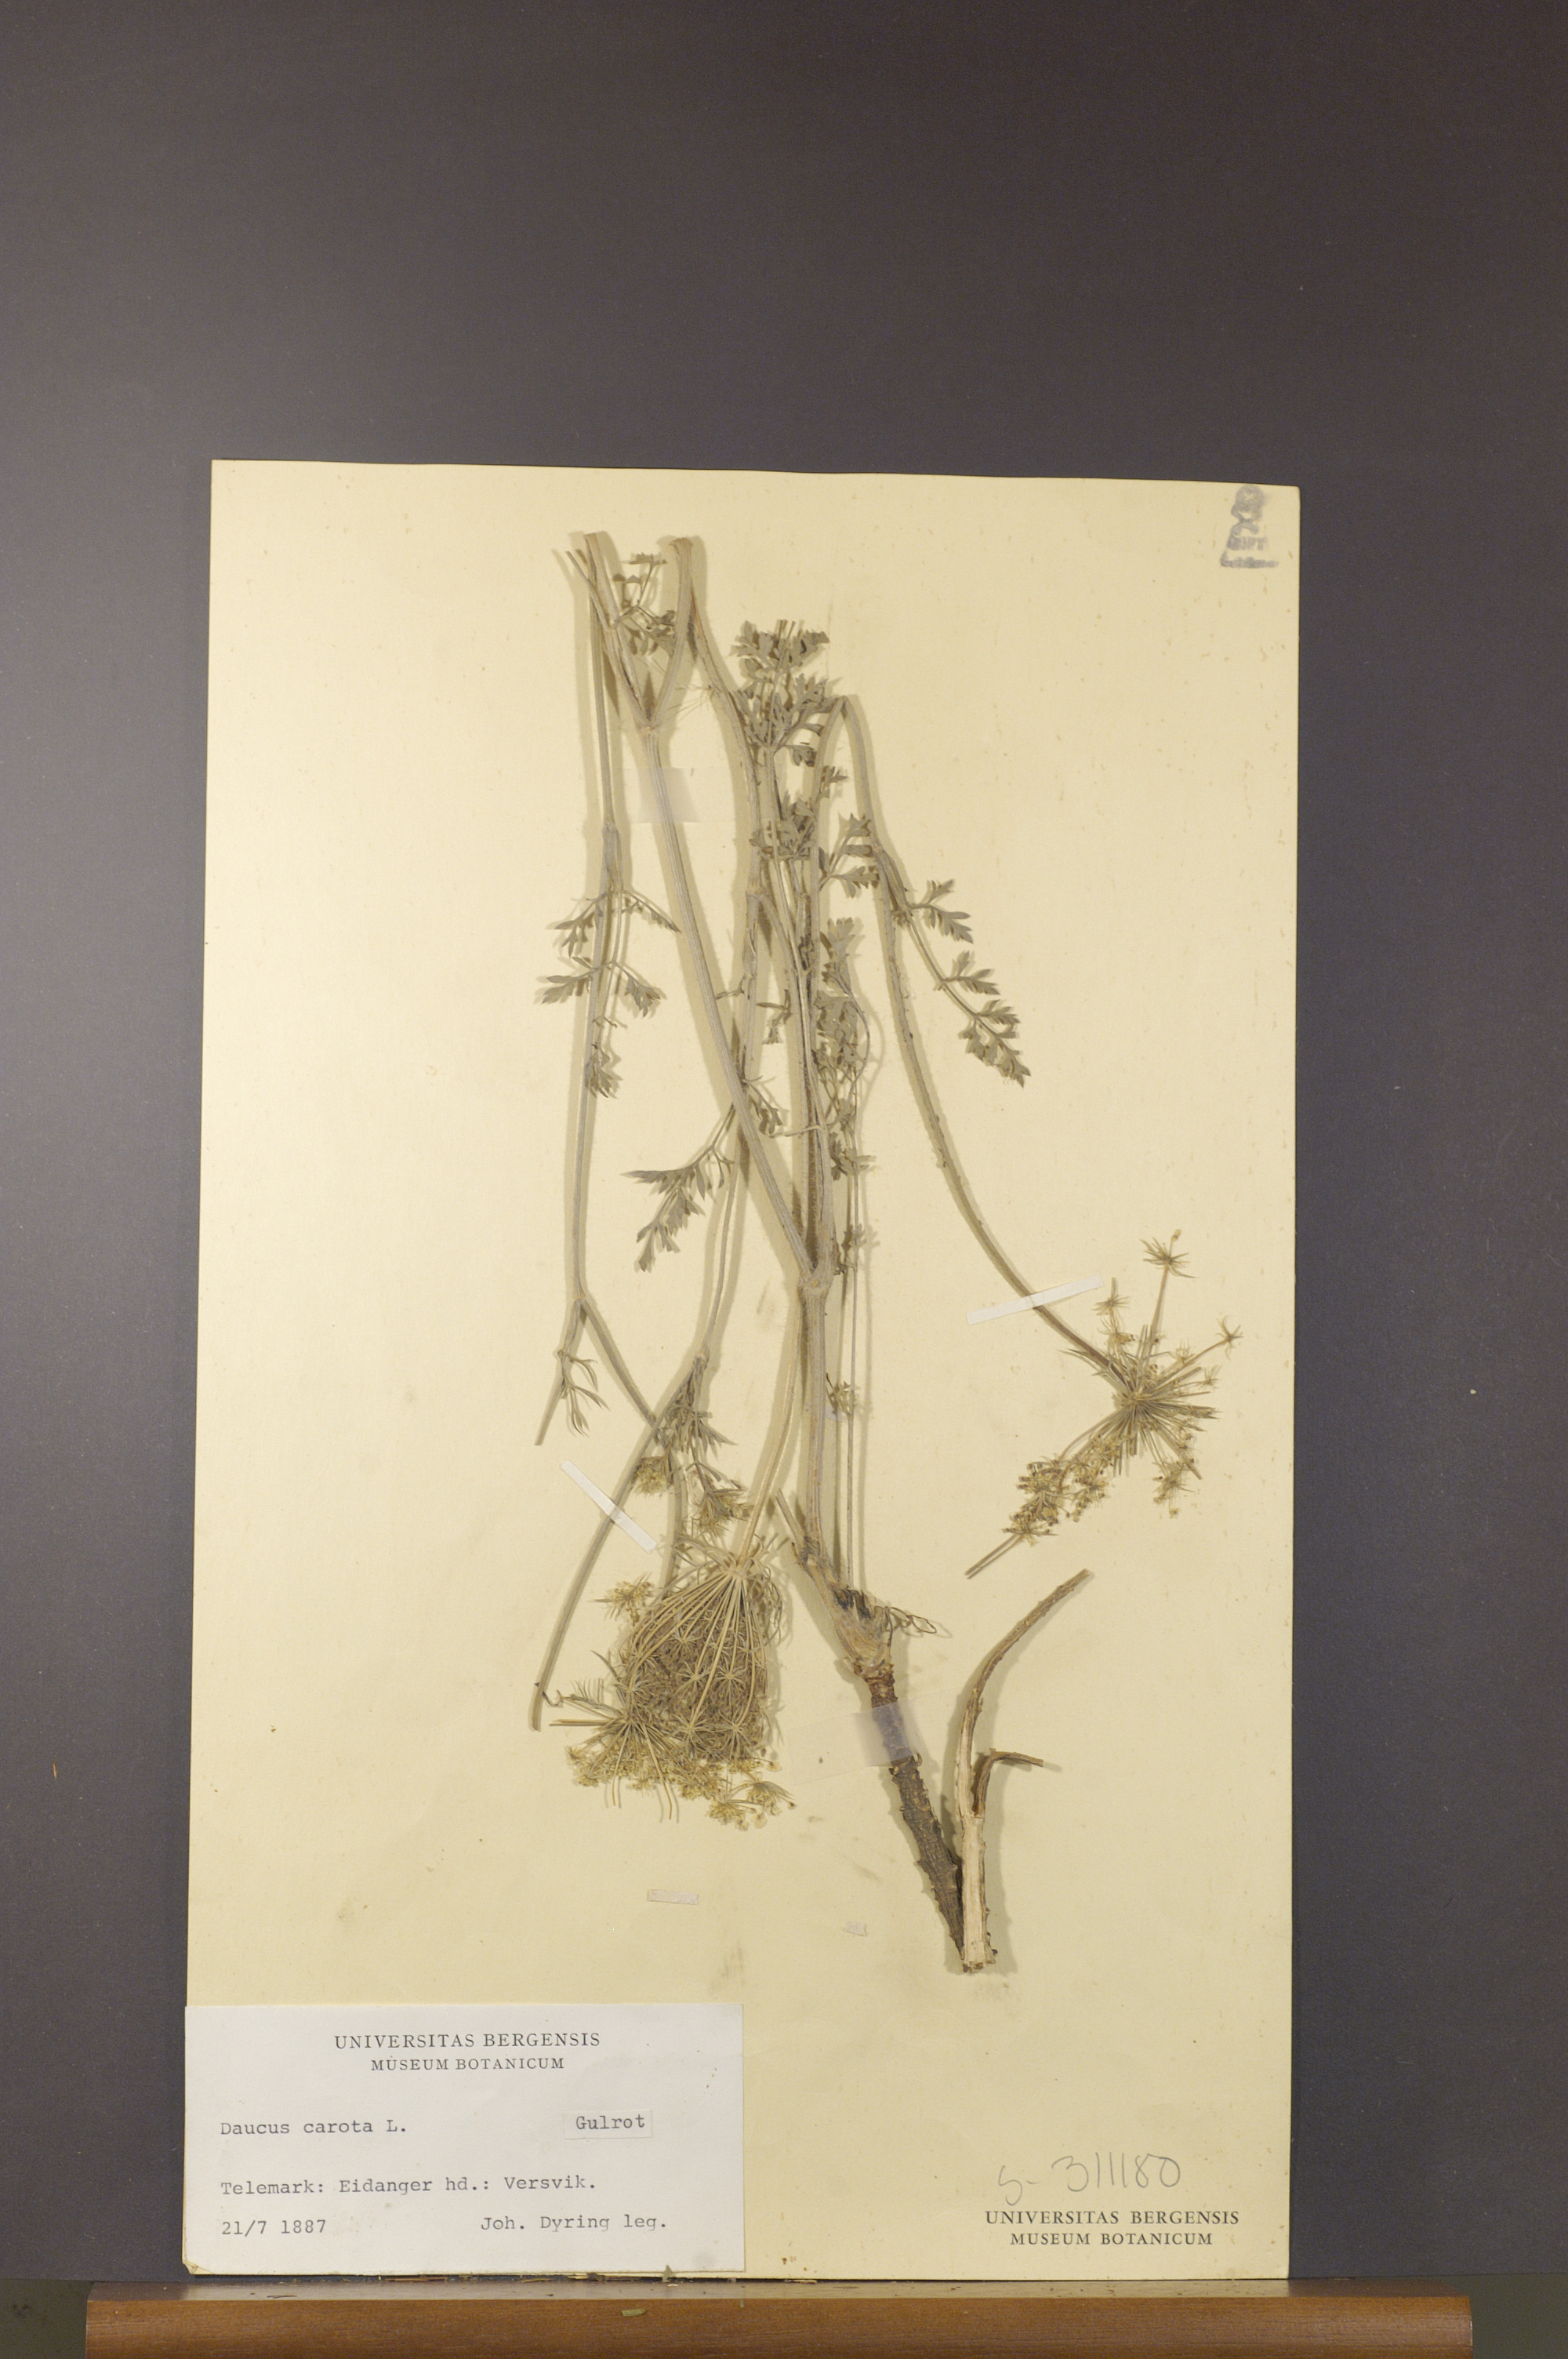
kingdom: Plantae
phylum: Tracheophyta
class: Magnoliopsida
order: Apiales
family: Apiaceae
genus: Daucus
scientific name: Daucus carota
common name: Wild carrot
